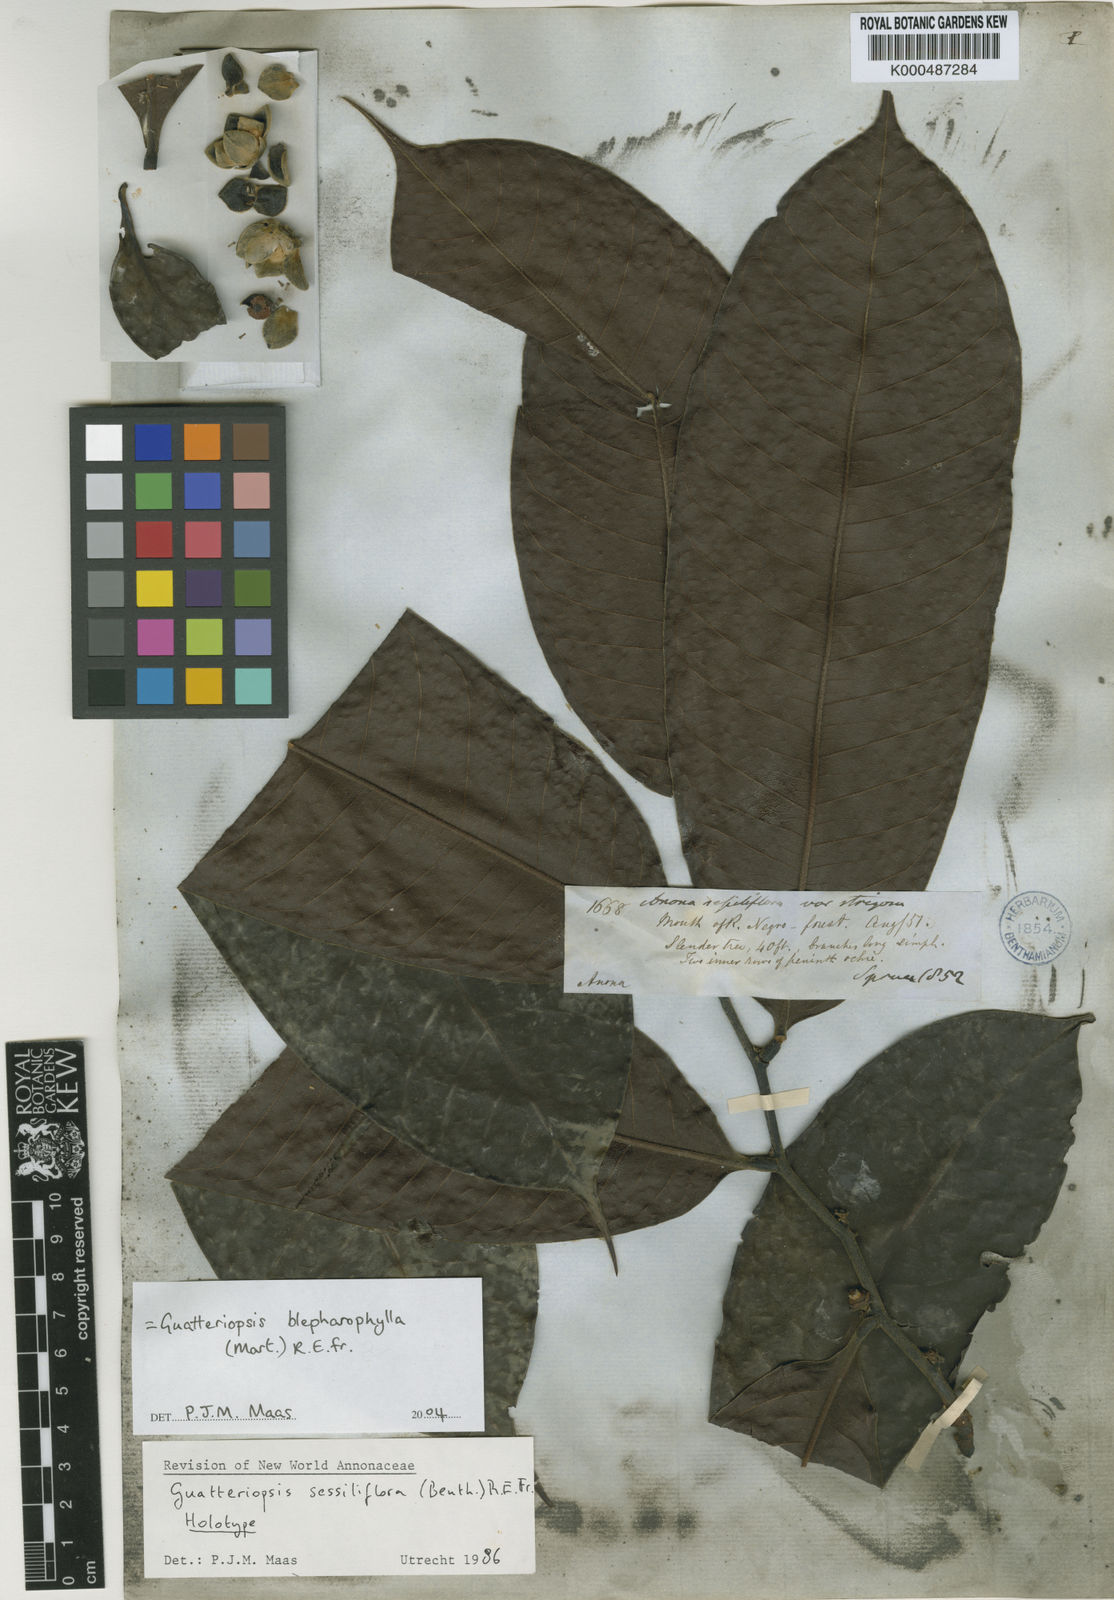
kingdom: Plantae
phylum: Tracheophyta
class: Magnoliopsida
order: Magnoliales
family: Annonaceae
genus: Guatteria
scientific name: Guatteria blepharophylla
